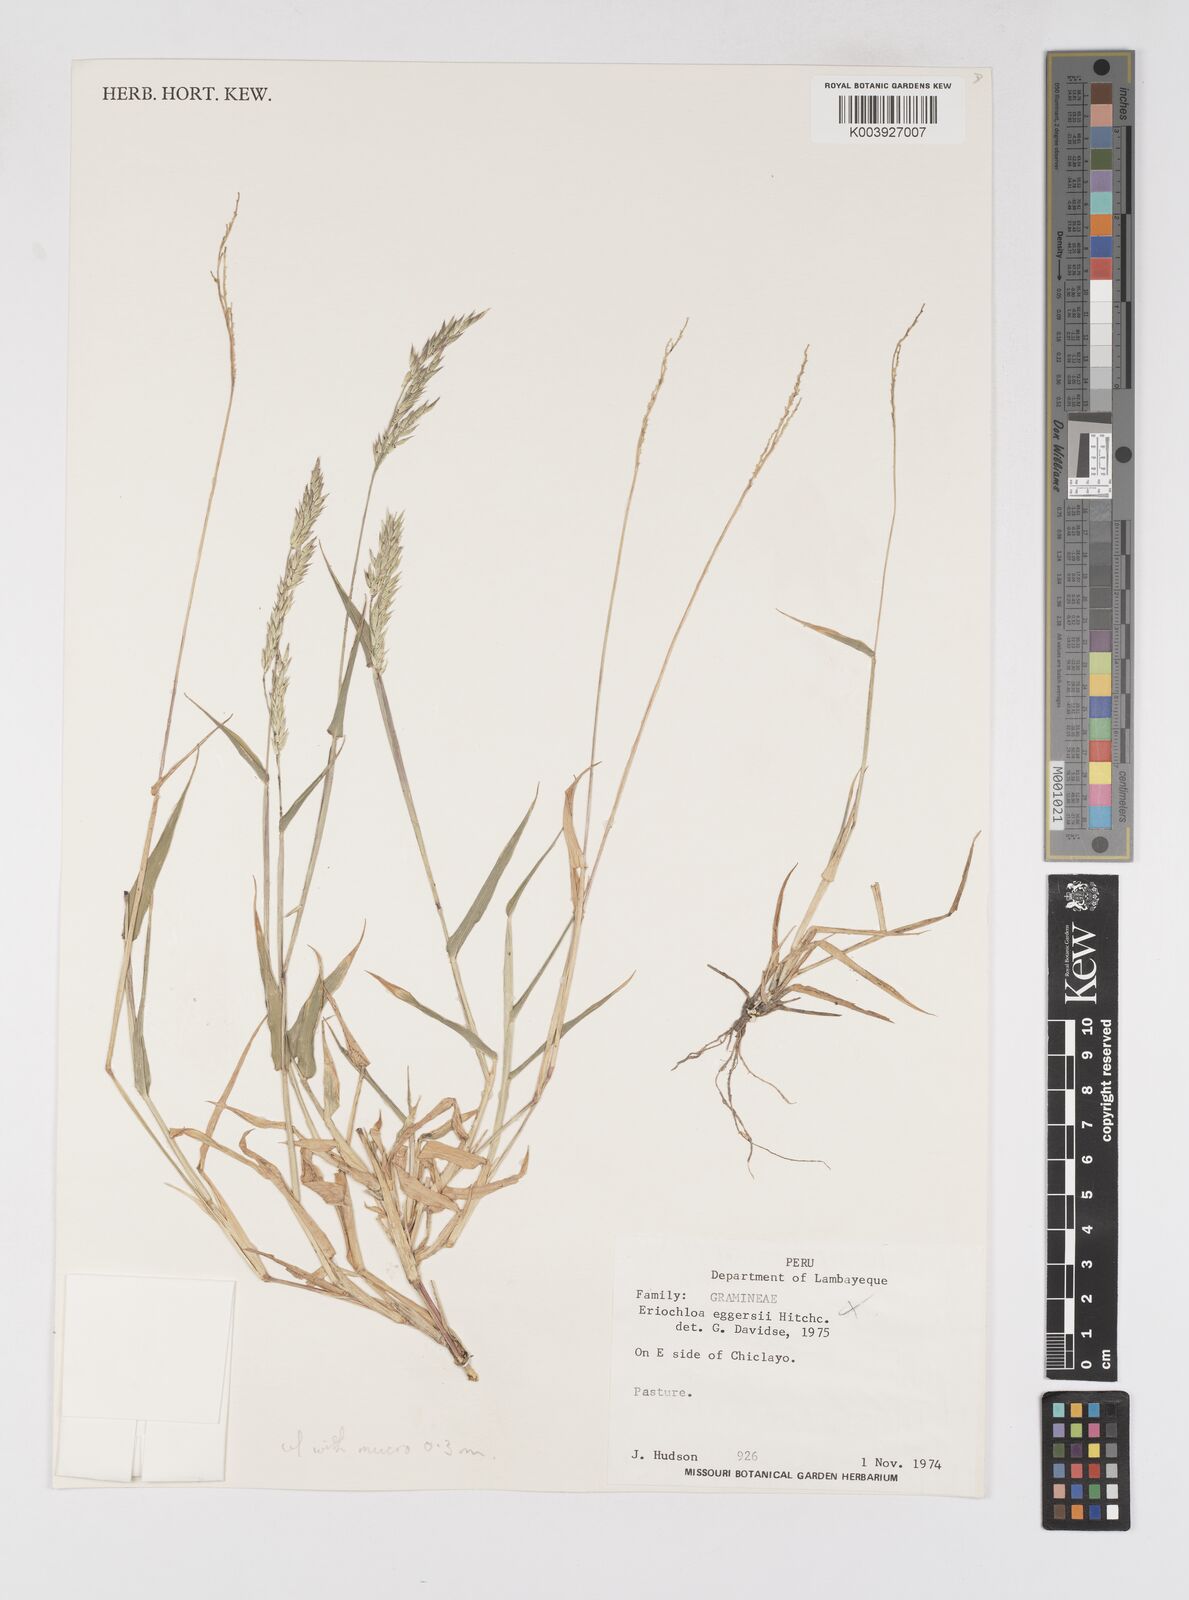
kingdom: Plantae
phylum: Tracheophyta
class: Liliopsida
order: Poales
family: Poaceae
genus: Eriochloa
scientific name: Eriochloa pacifica
